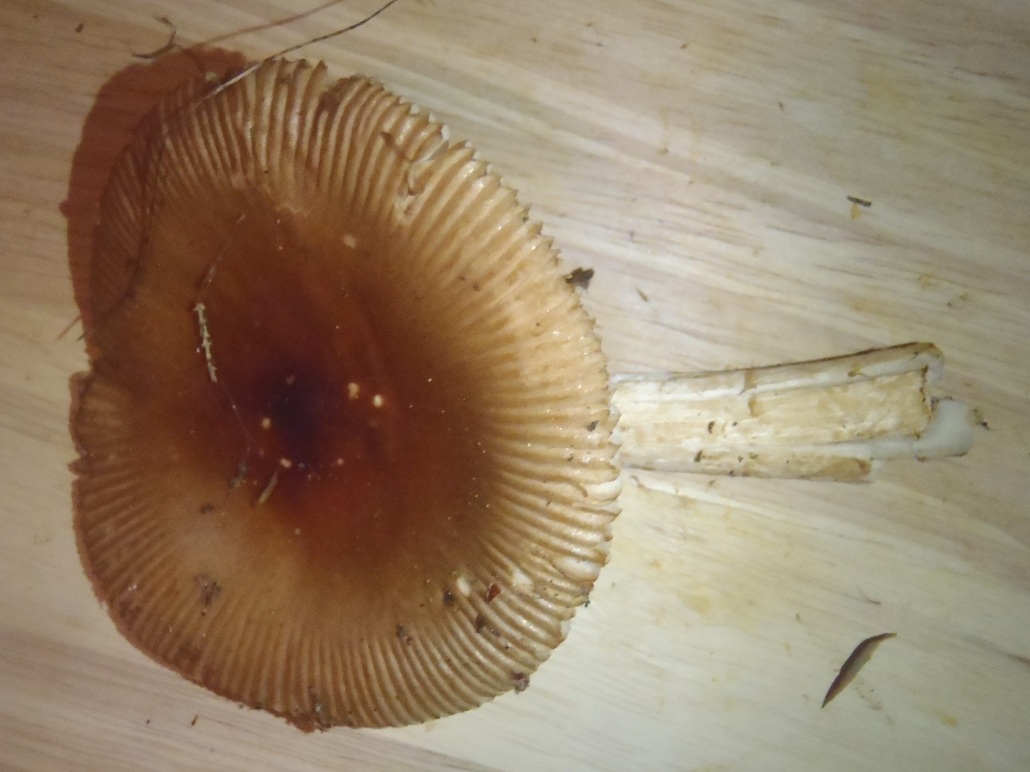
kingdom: Fungi
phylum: Basidiomycota
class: Agaricomycetes
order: Agaricales
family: Amanitaceae
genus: Amanita
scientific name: Amanita fulva
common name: brun kam-fluesvamp
